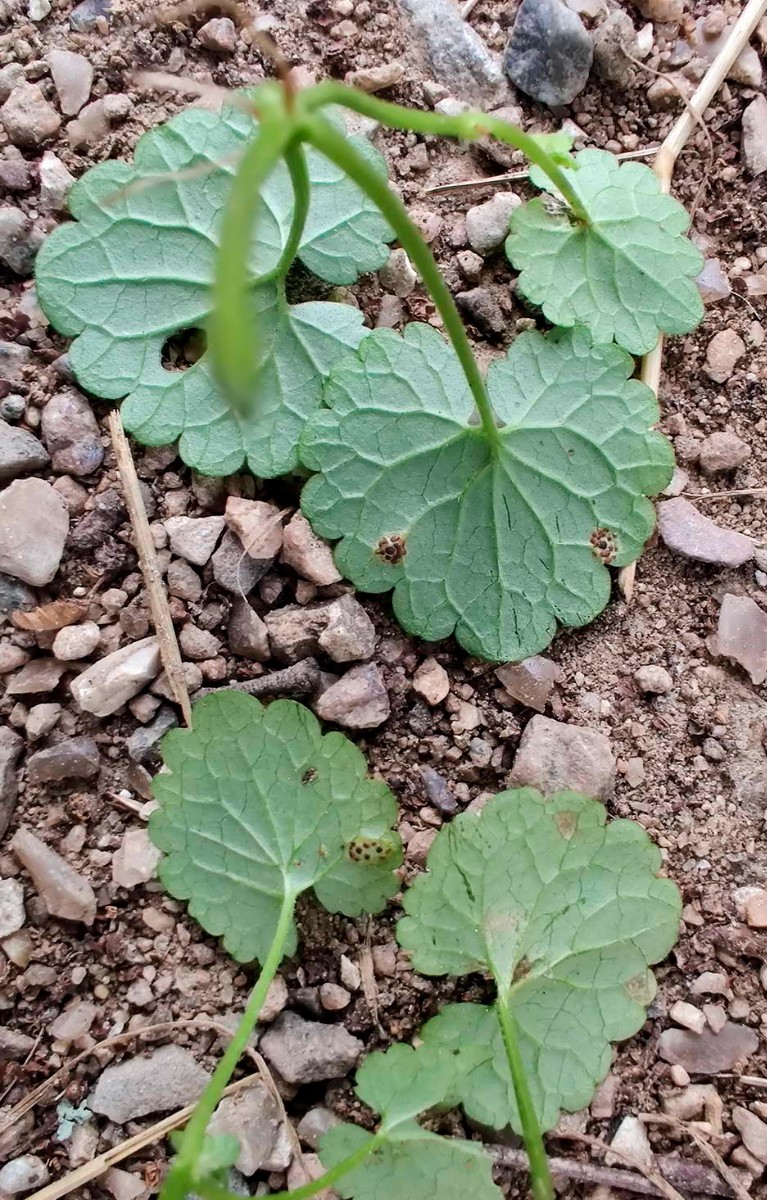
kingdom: Fungi
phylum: Basidiomycota
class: Pucciniomycetes
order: Pucciniales
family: Pucciniaceae
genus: Puccinia
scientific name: Puccinia glechomatis
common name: Ground ivy rust
